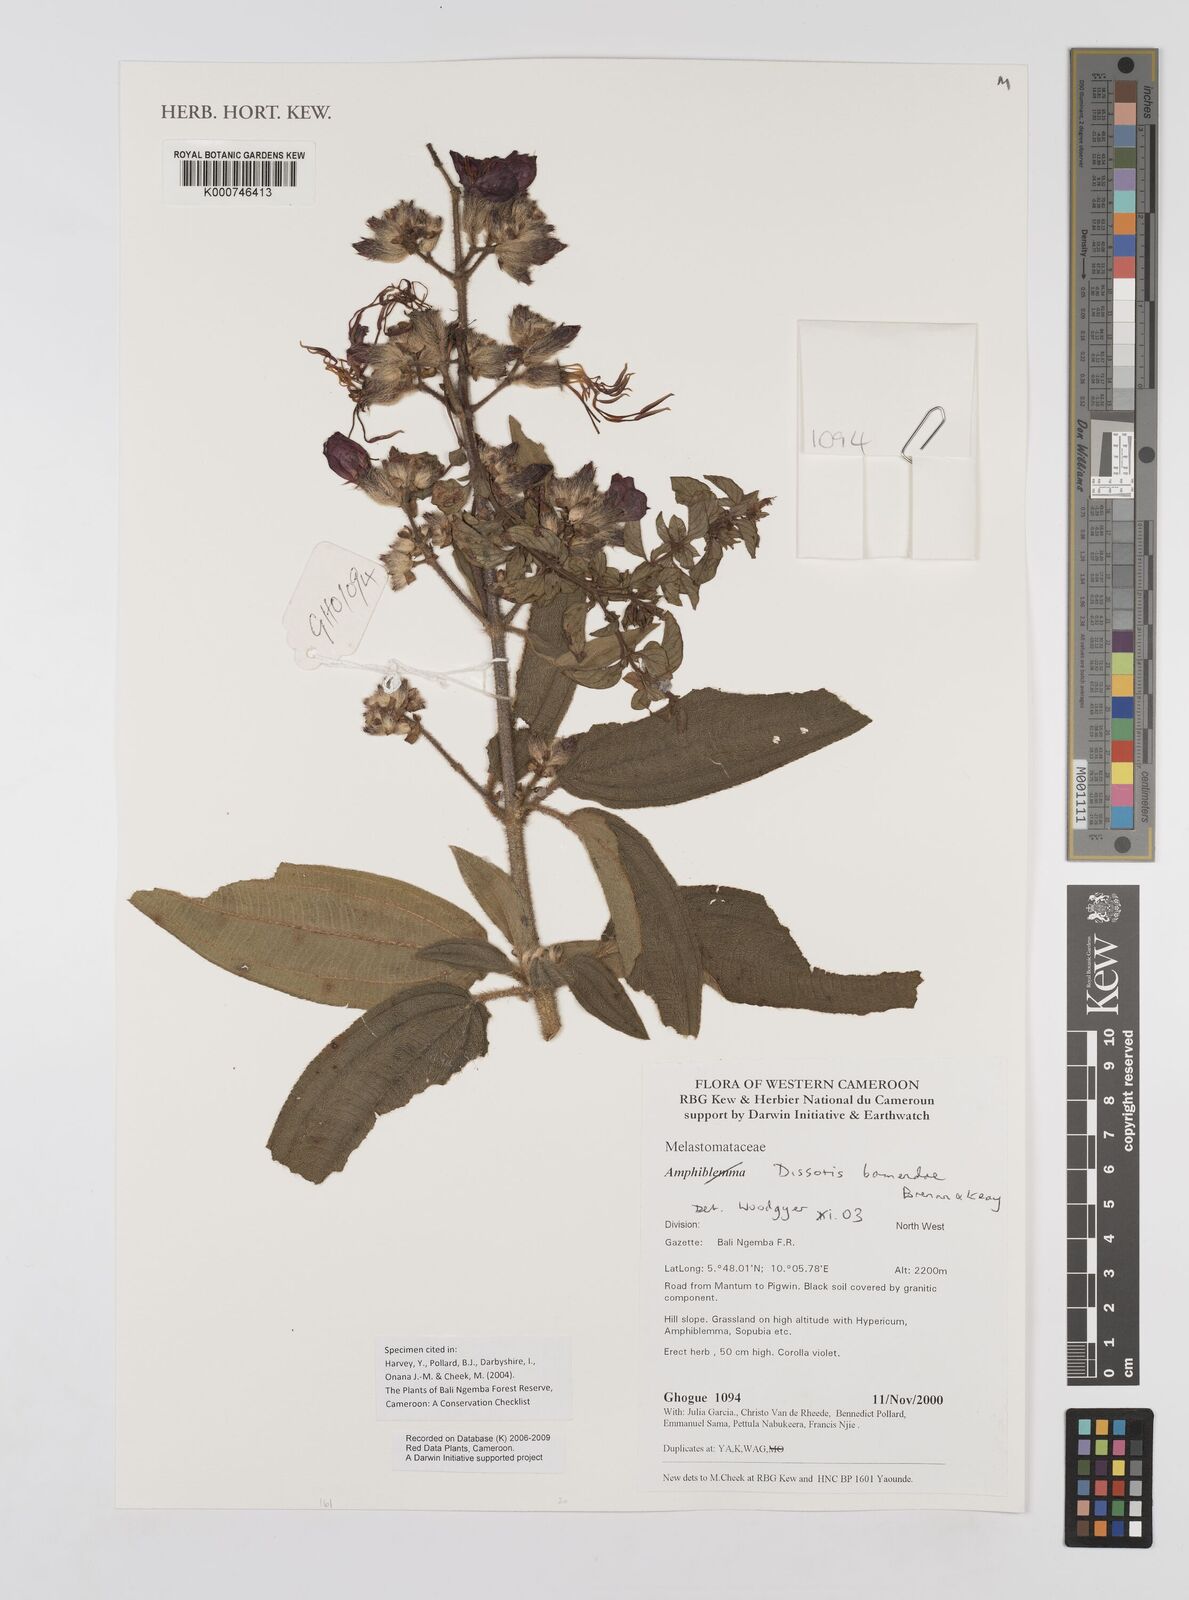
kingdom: Plantae
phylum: Tracheophyta
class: Magnoliopsida
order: Myrtales
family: Melastomataceae
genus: Rosettea
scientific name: Rosettea riparia
